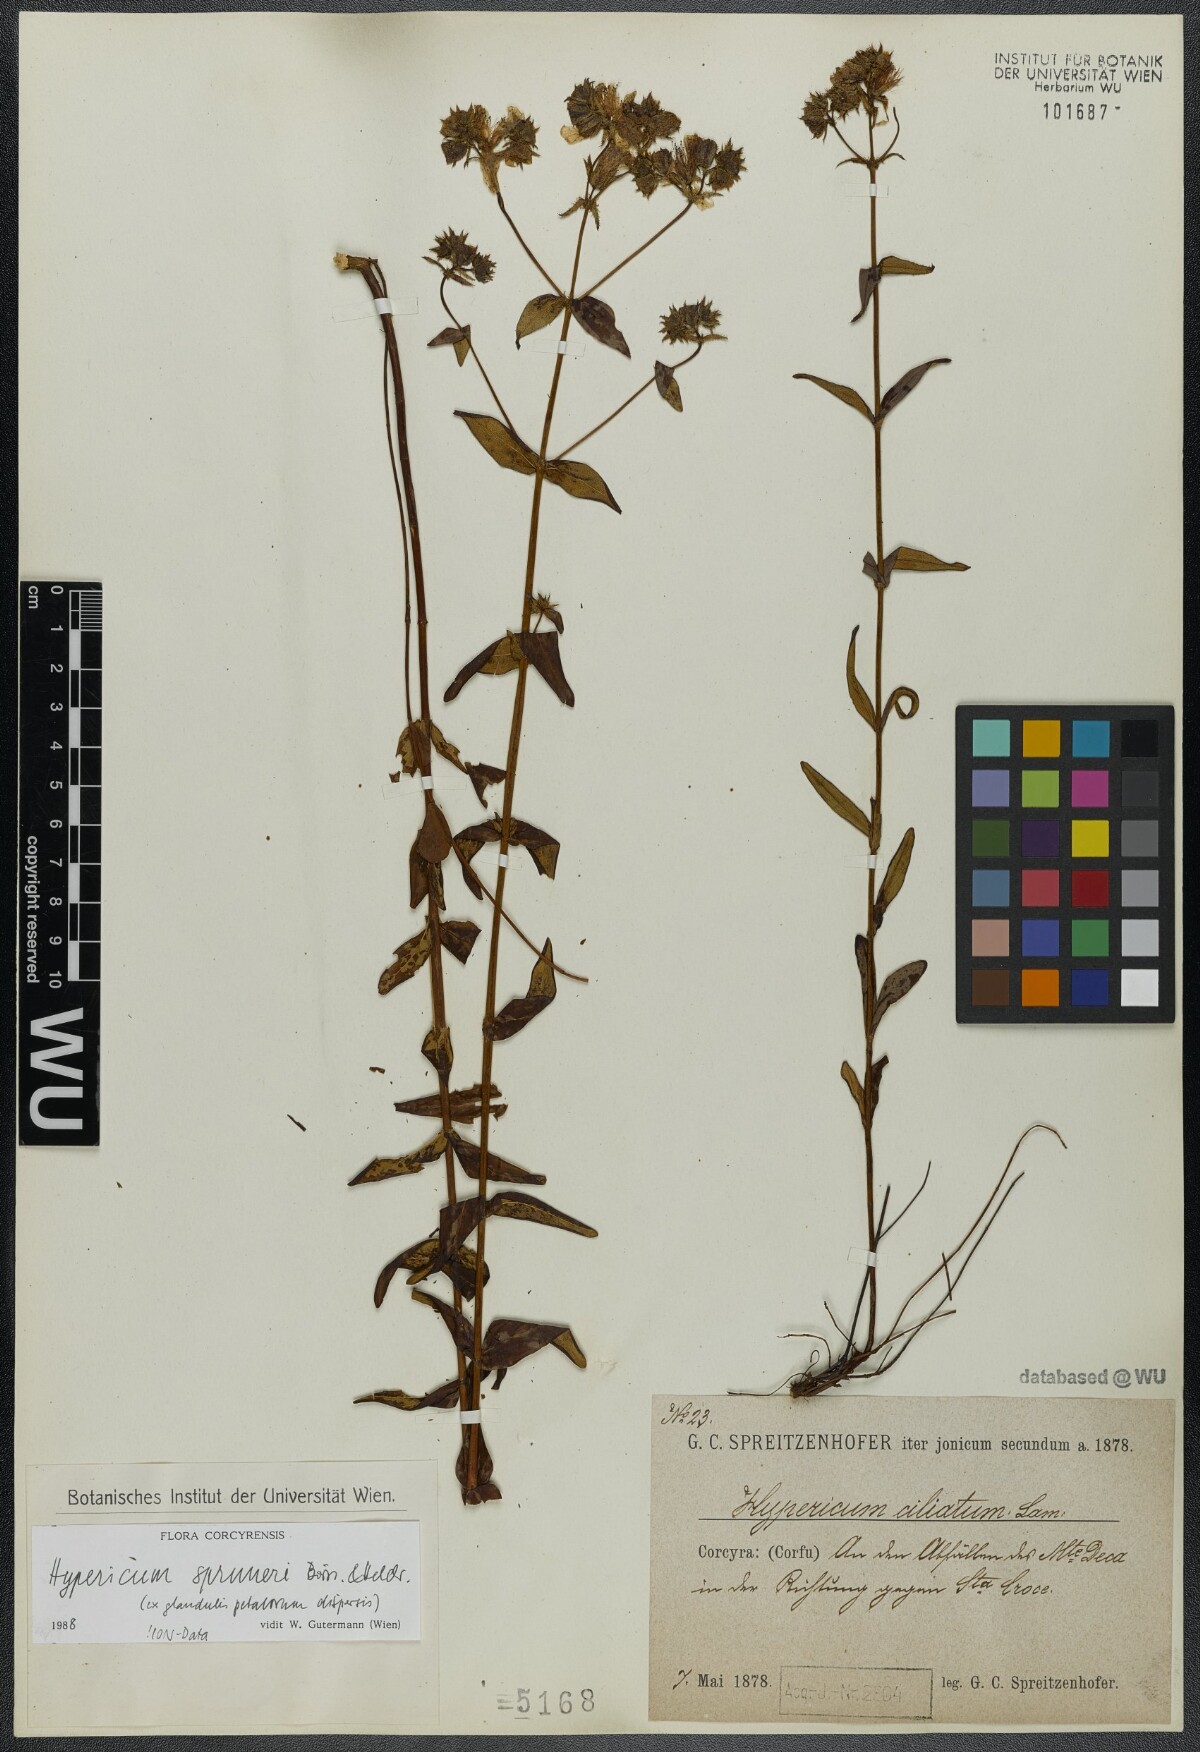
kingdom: Plantae
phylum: Tracheophyta
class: Magnoliopsida
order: Malpighiales
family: Hypericaceae
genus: Hypericum
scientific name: Hypericum spruneri
